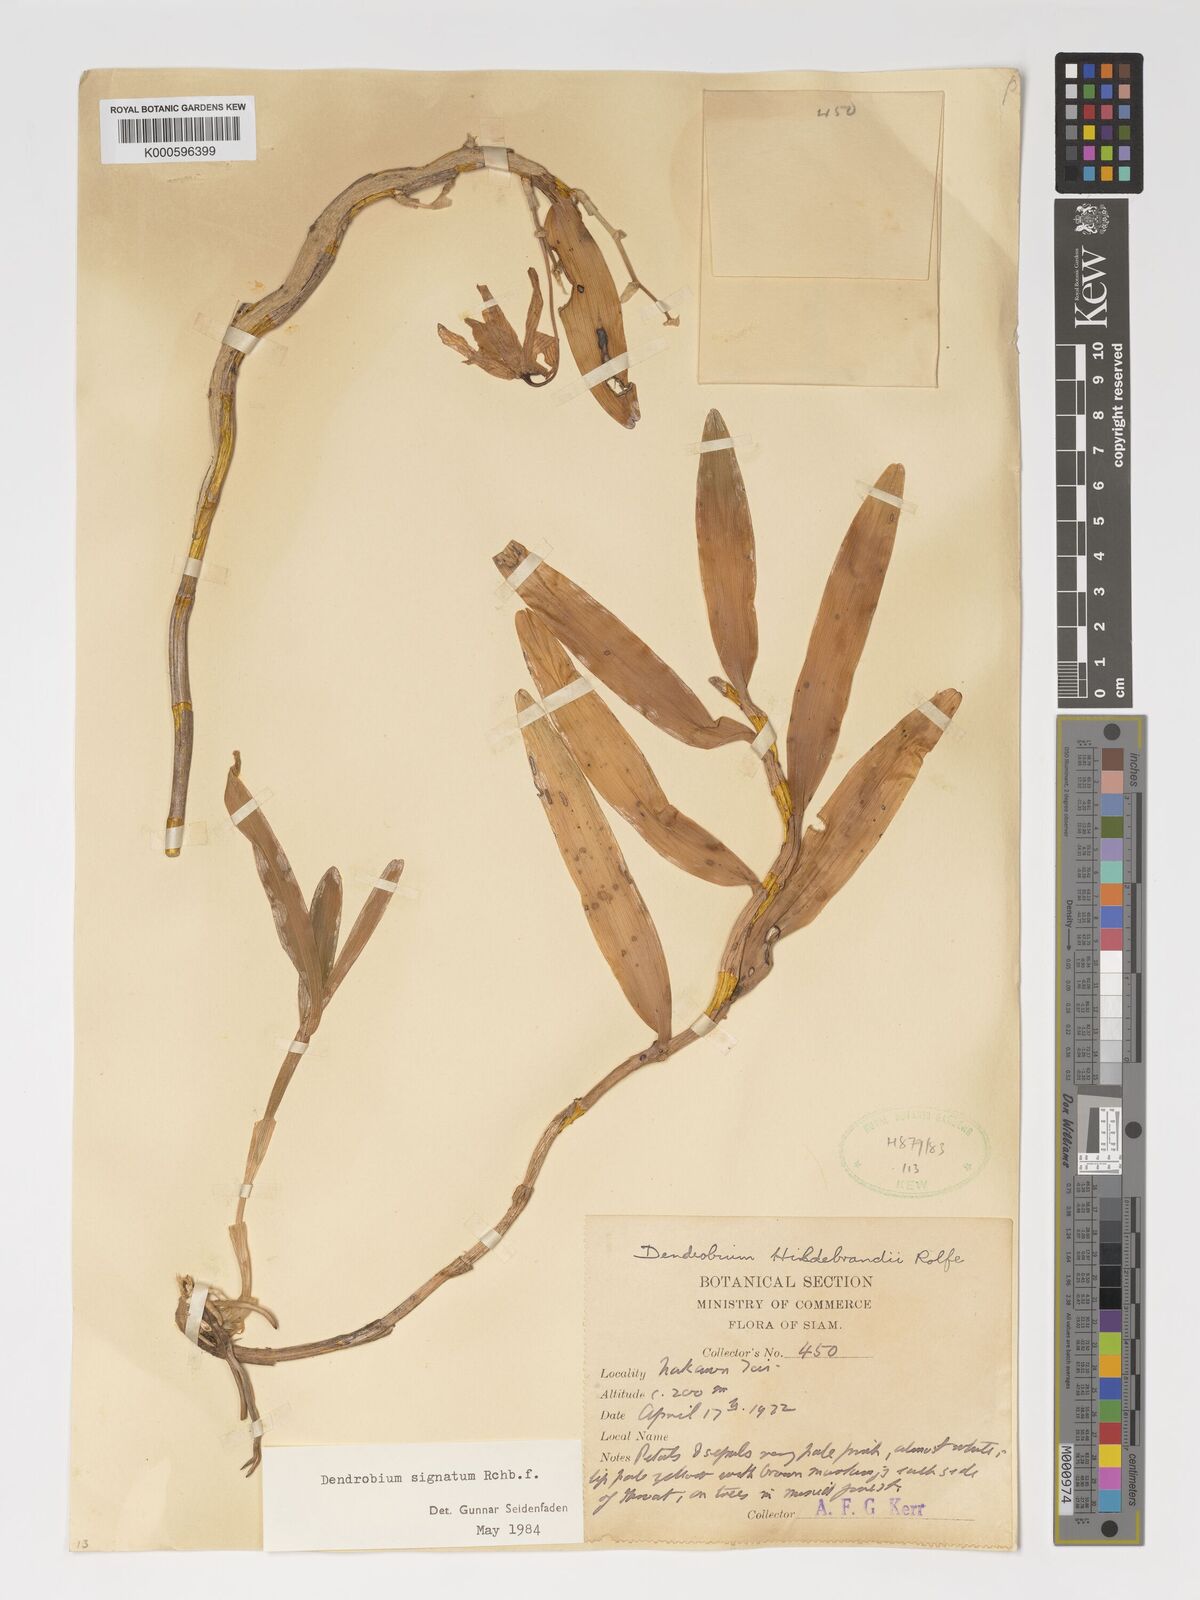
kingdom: Plantae
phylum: Tracheophyta
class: Liliopsida
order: Asparagales
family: Orchidaceae
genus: Dendrobium
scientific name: Dendrobium signatum
